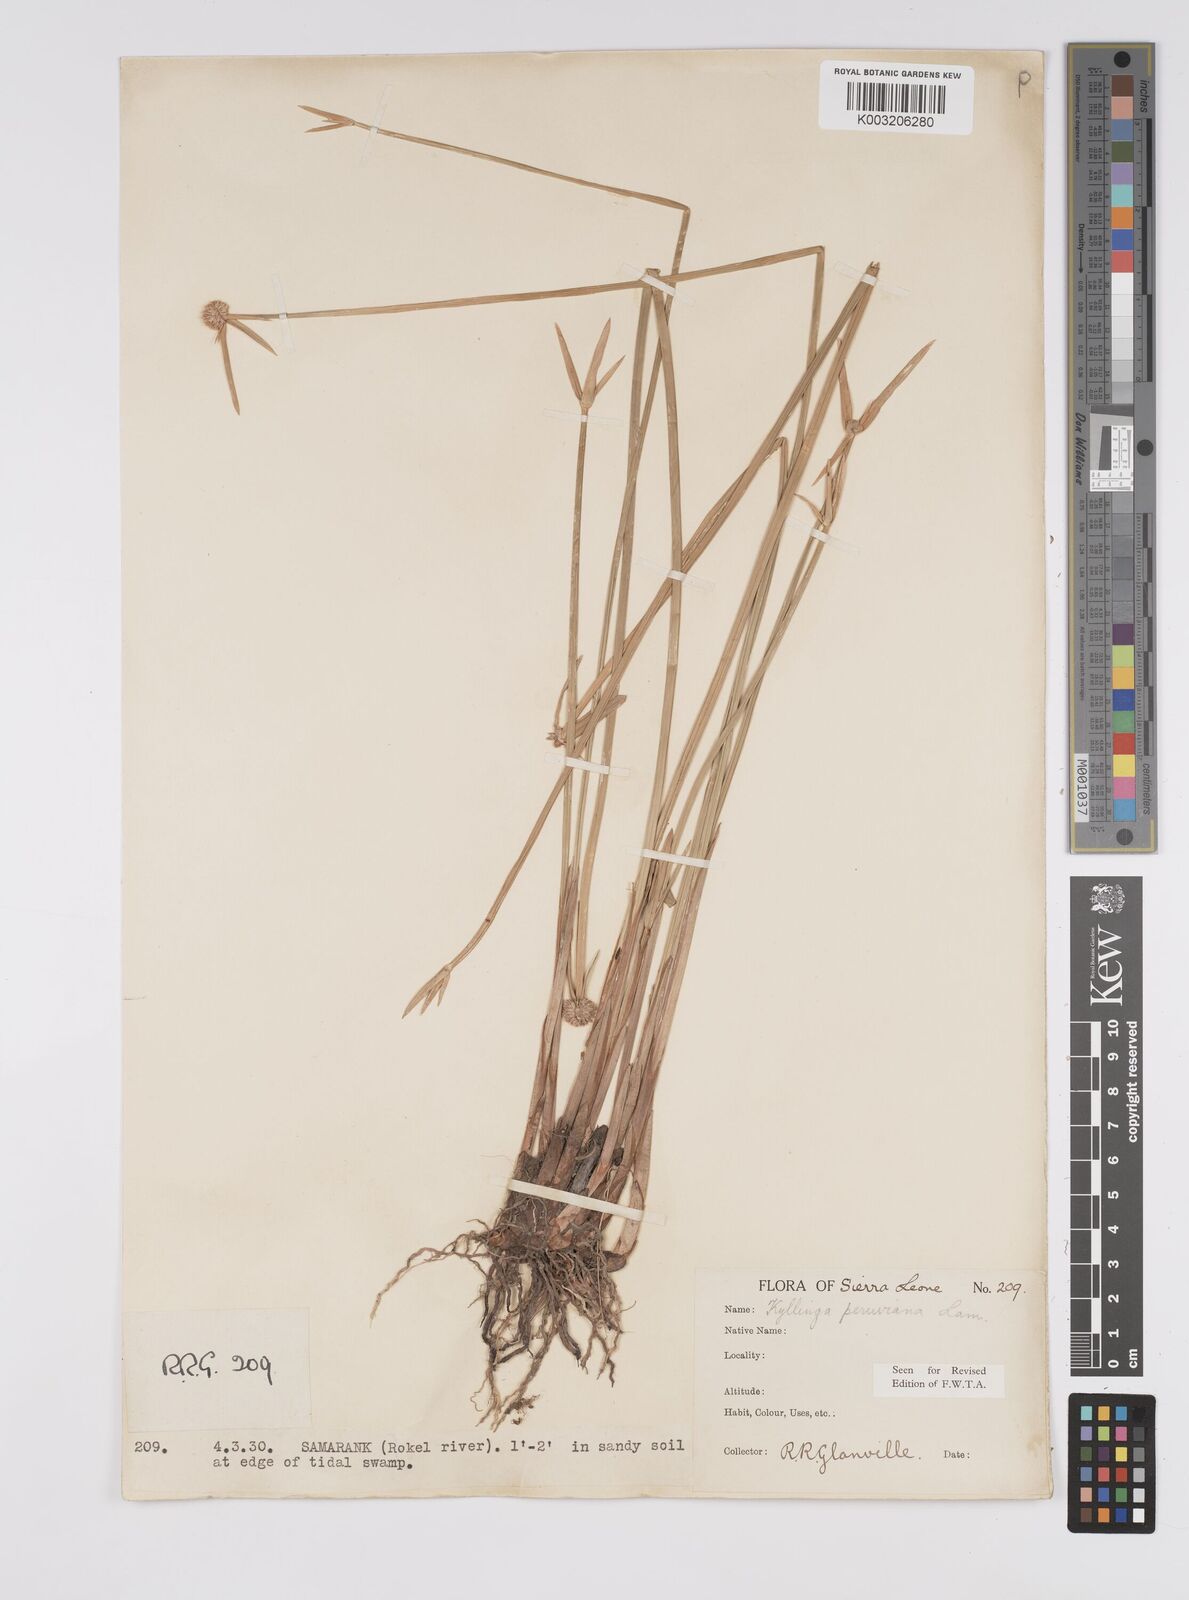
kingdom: Plantae
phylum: Tracheophyta
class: Liliopsida
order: Poales
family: Cyperaceae
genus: Cyperus
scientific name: Cyperus obtusatus
